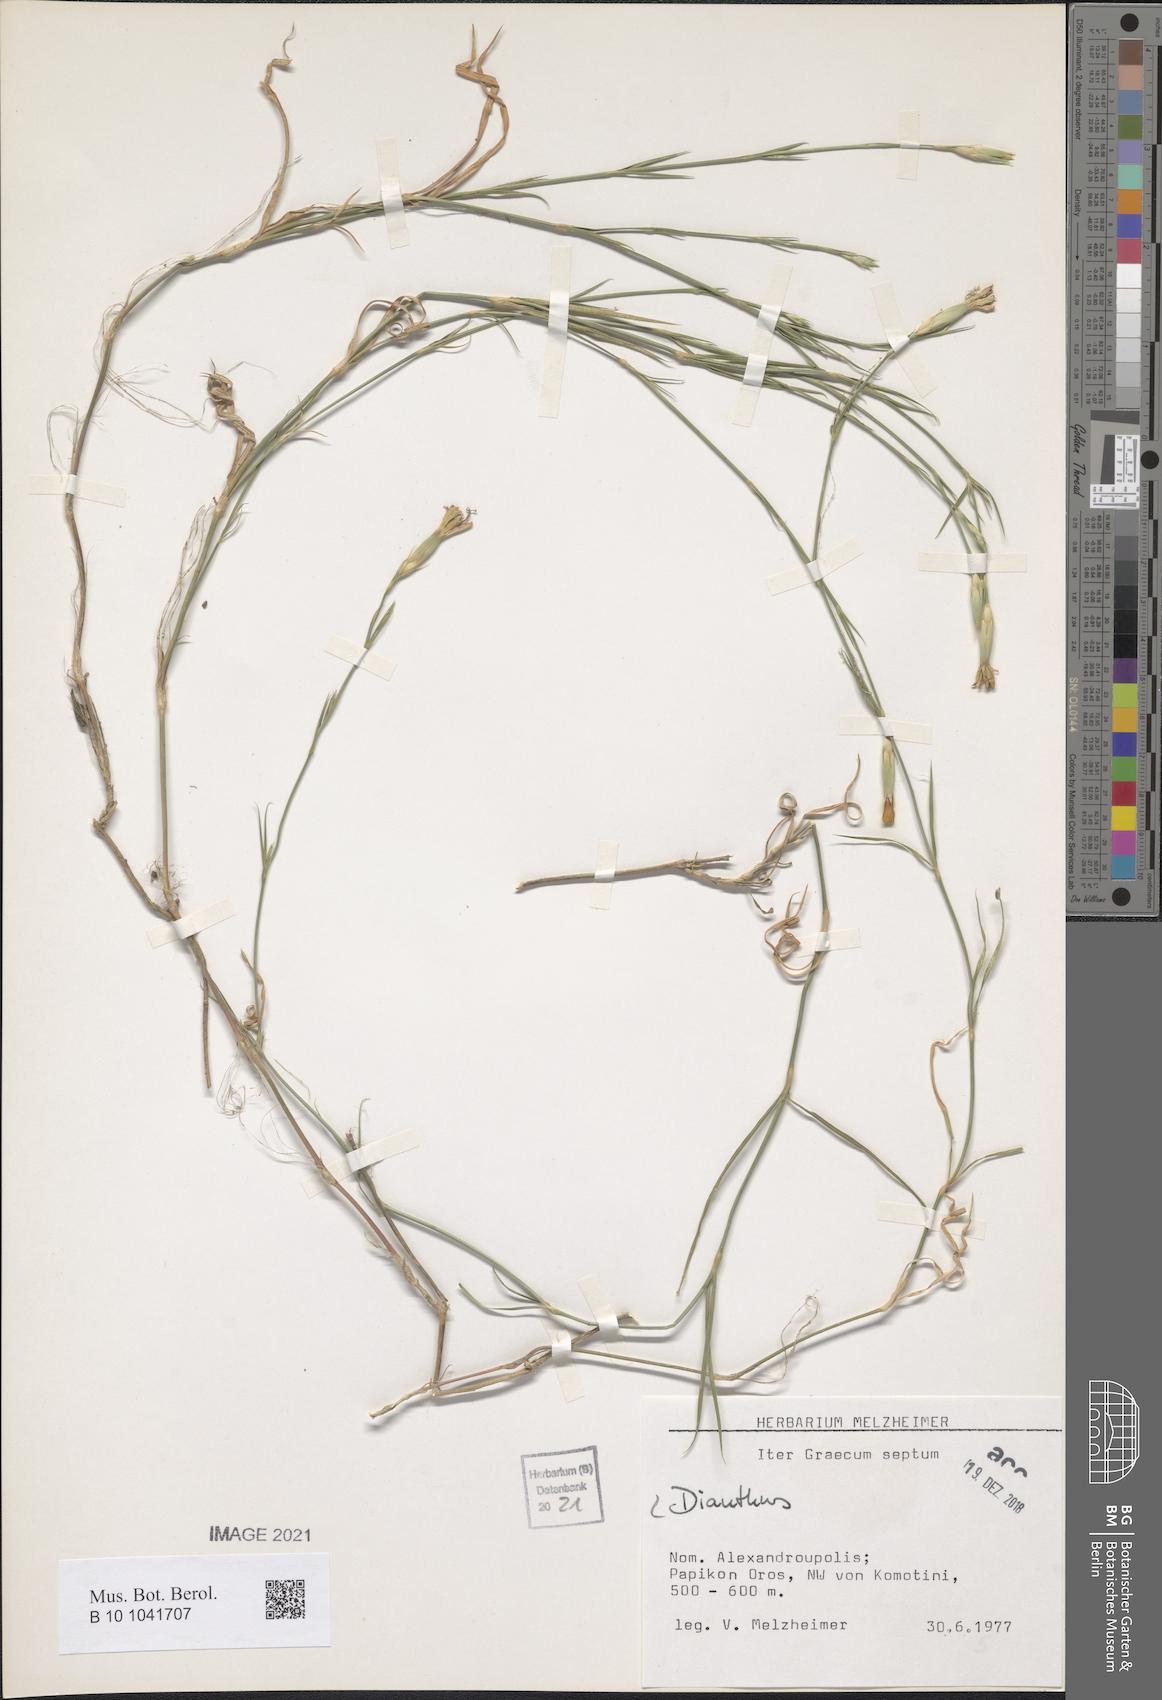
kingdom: Plantae
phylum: Tracheophyta
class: Magnoliopsida
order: Caryophyllales
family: Caryophyllaceae
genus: Dianthus
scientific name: Dianthus
